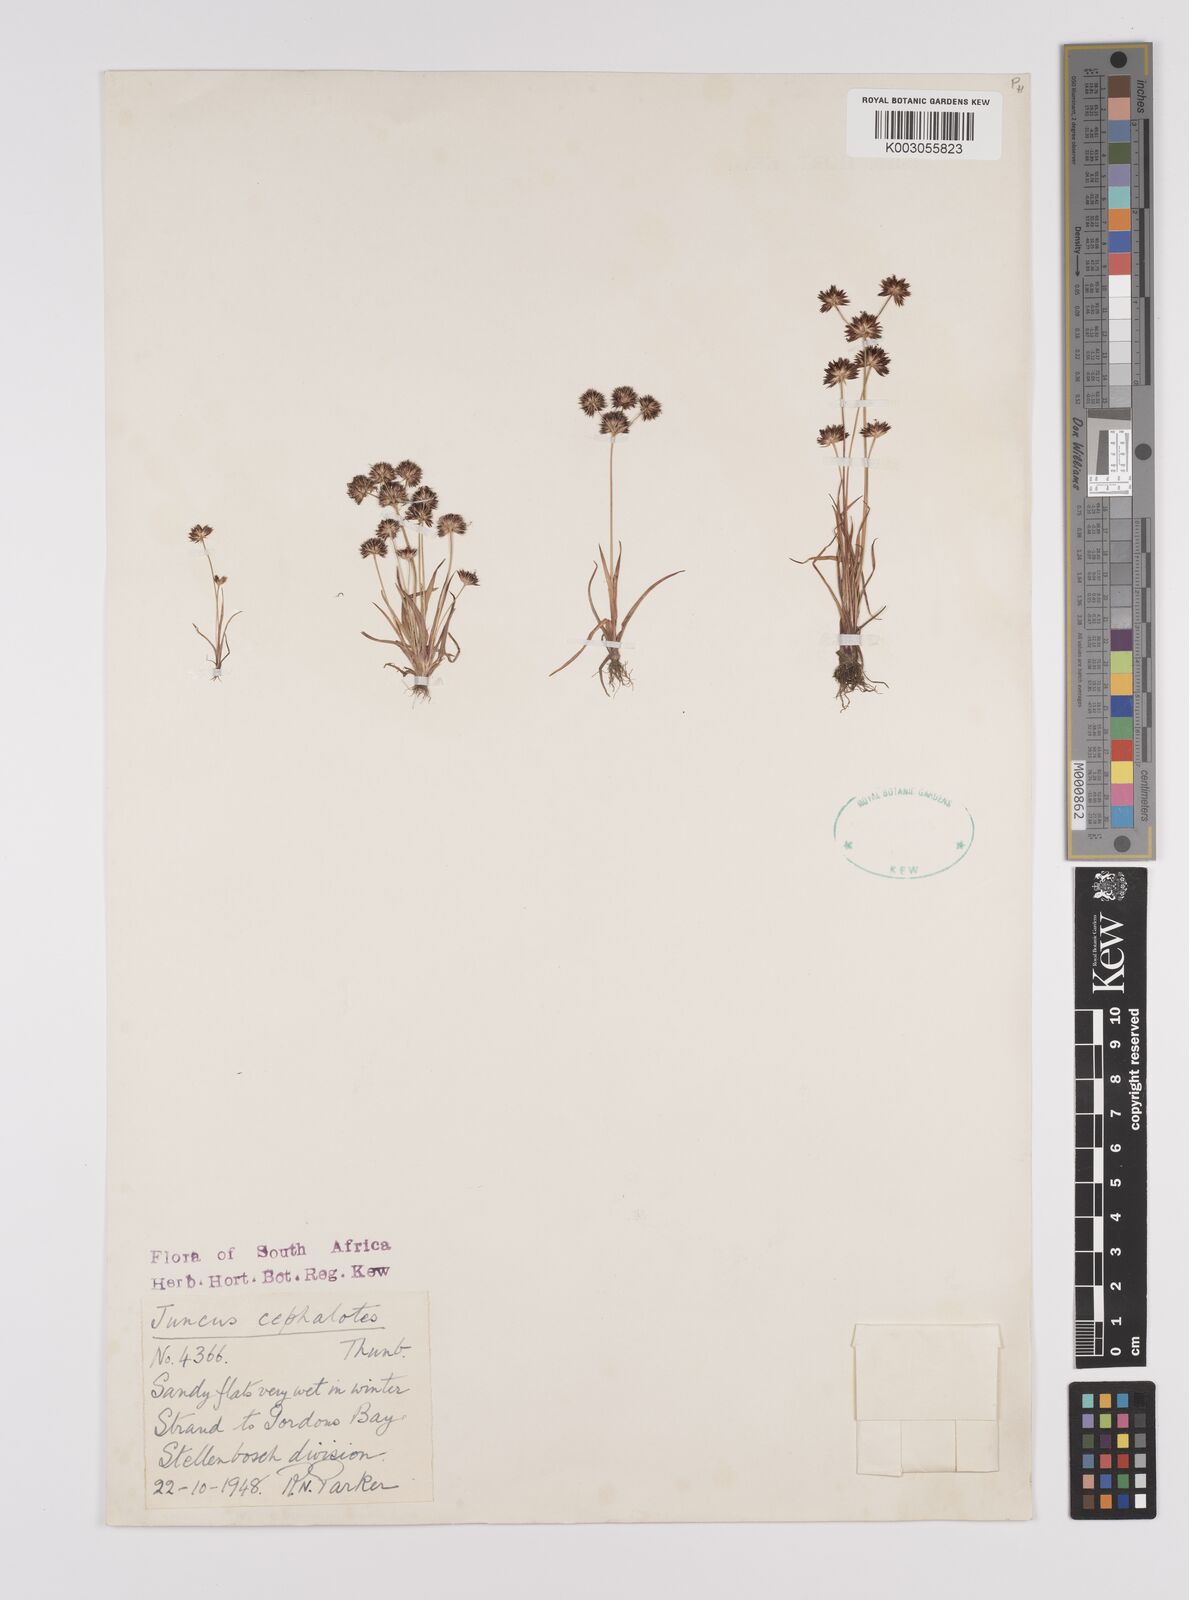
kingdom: Plantae
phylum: Tracheophyta
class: Liliopsida
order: Poales
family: Juncaceae
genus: Juncus
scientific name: Juncus cephalotes
